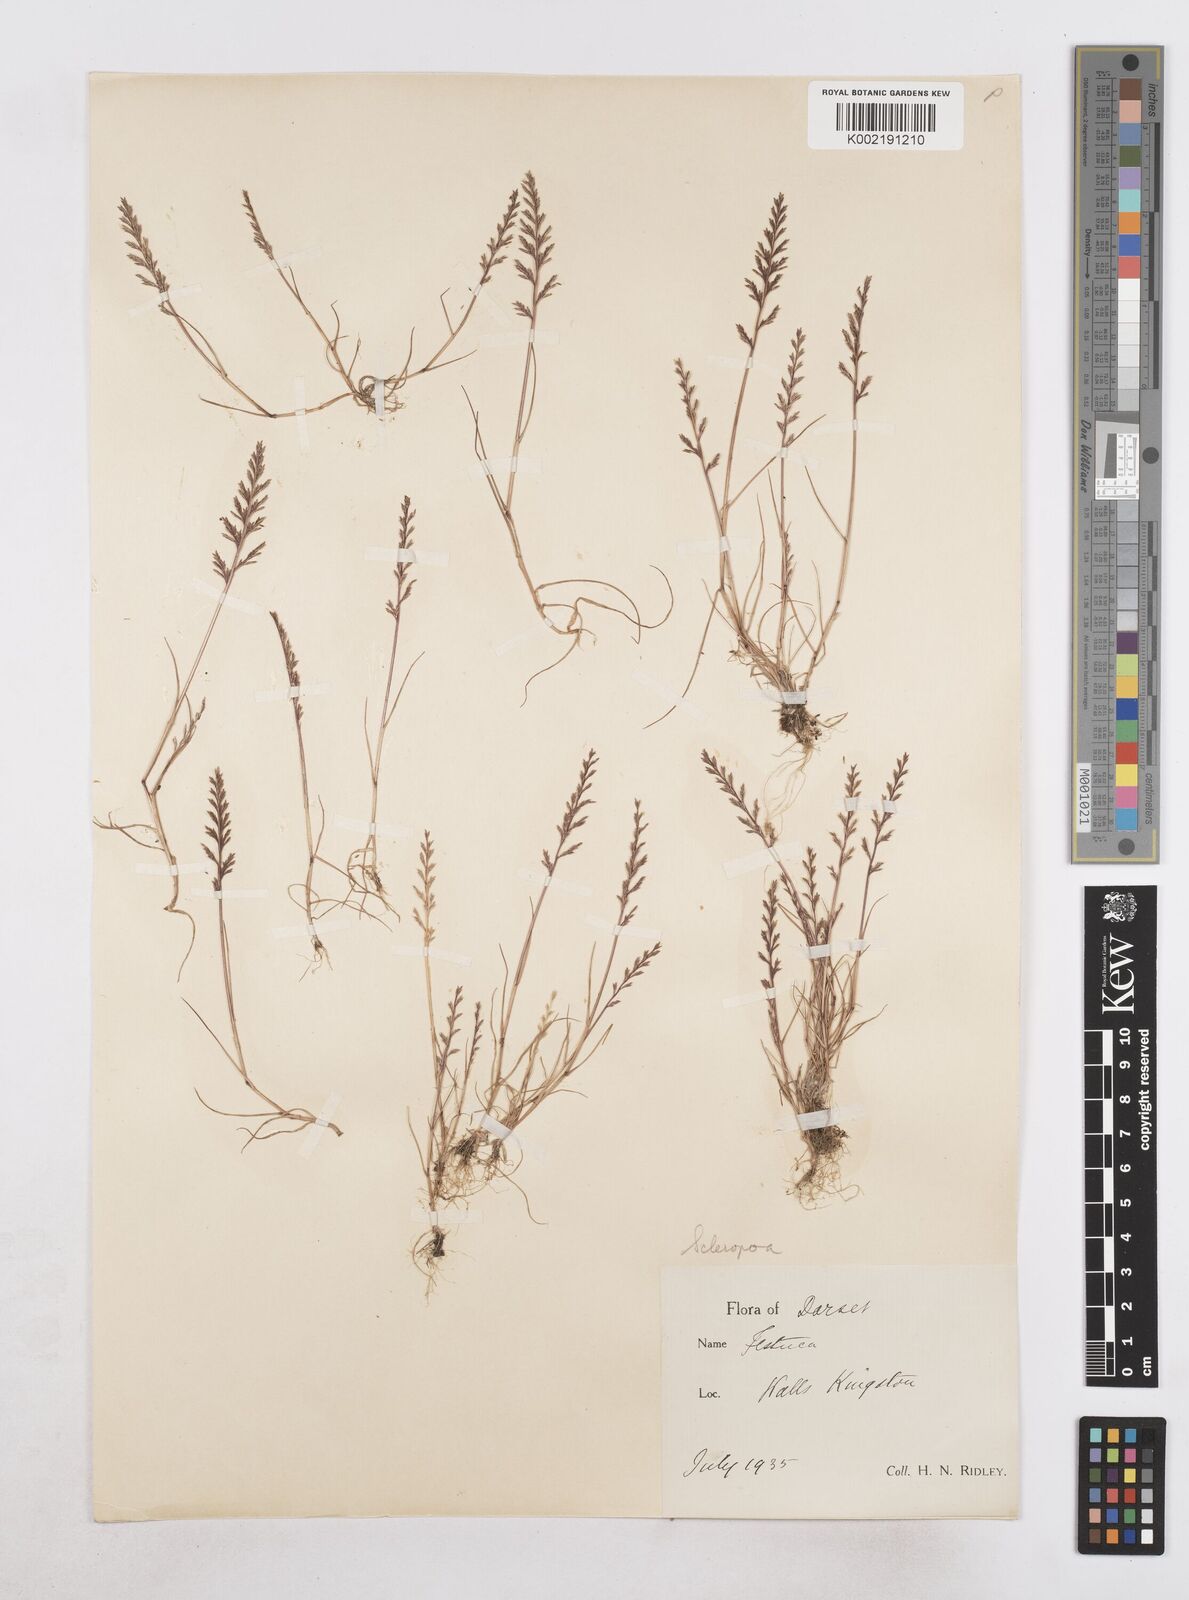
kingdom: Plantae
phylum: Tracheophyta
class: Liliopsida
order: Poales
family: Poaceae
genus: Catapodium
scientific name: Catapodium rigidum
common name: Fern-grass
